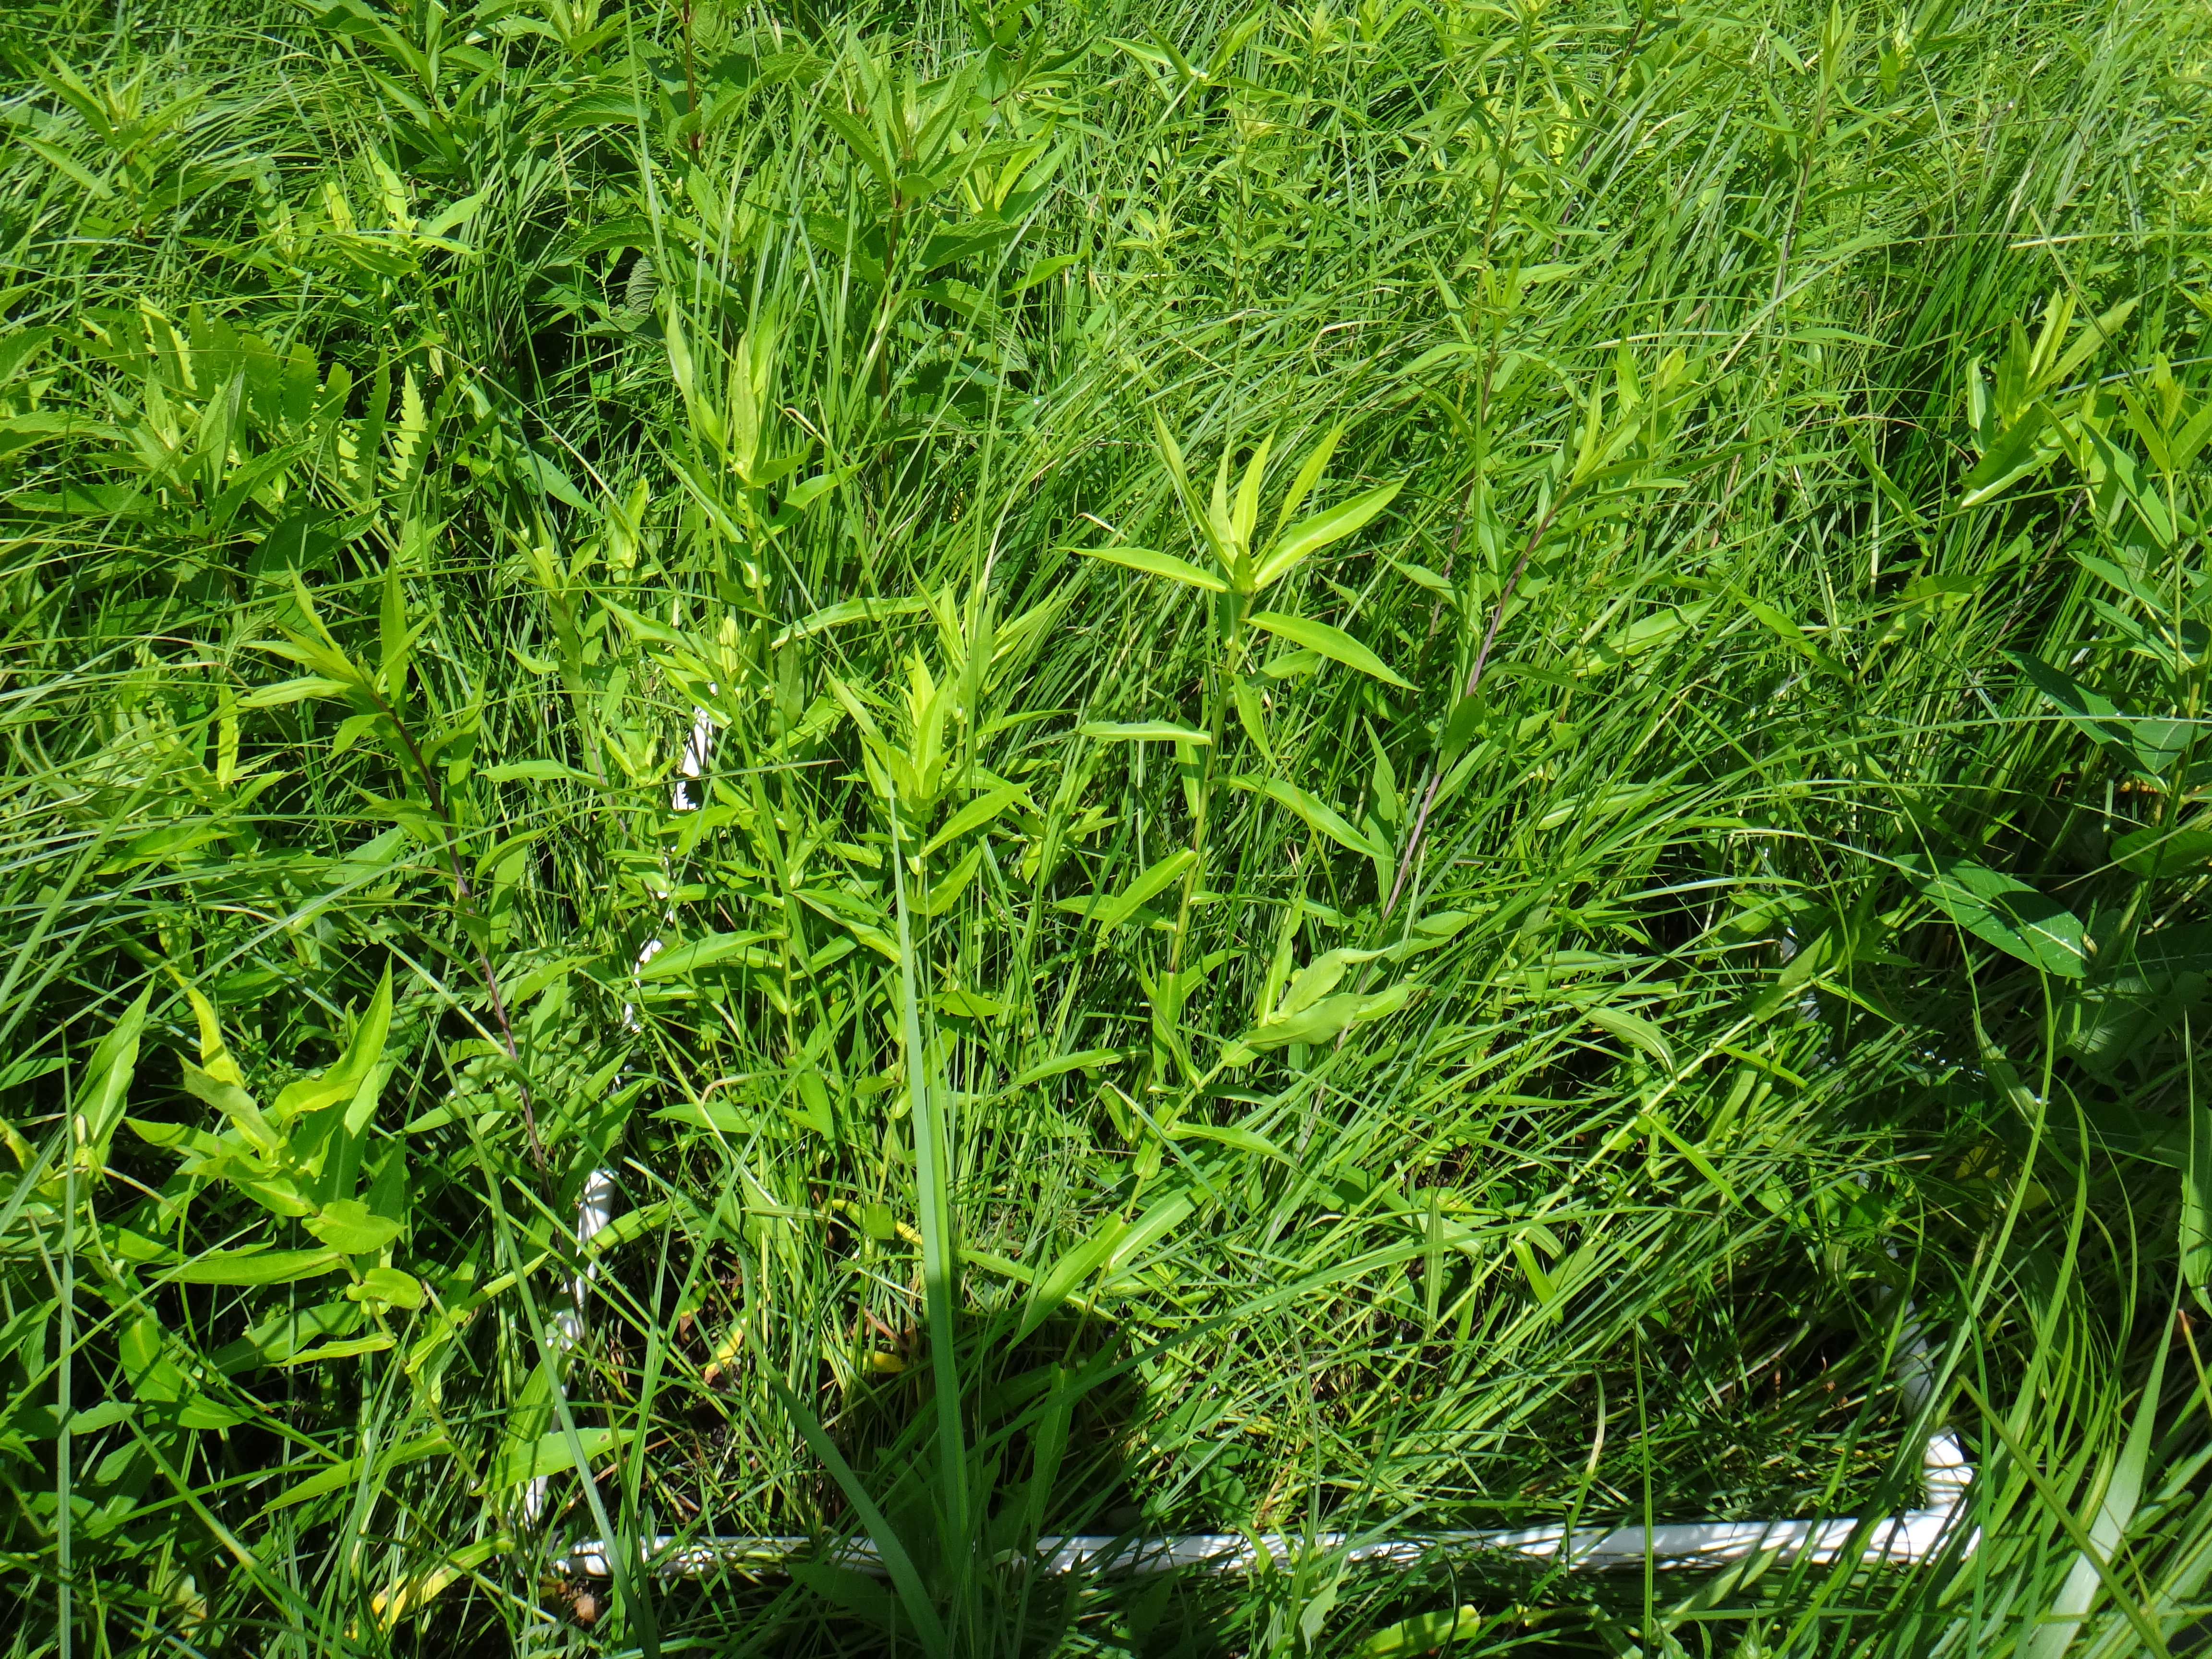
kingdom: Plantae
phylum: Tracheophyta
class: Magnoliopsida
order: Asterales
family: Asteraceae
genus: Symphyotrichum
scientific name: Symphyotrichum firmum
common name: Shining aster
